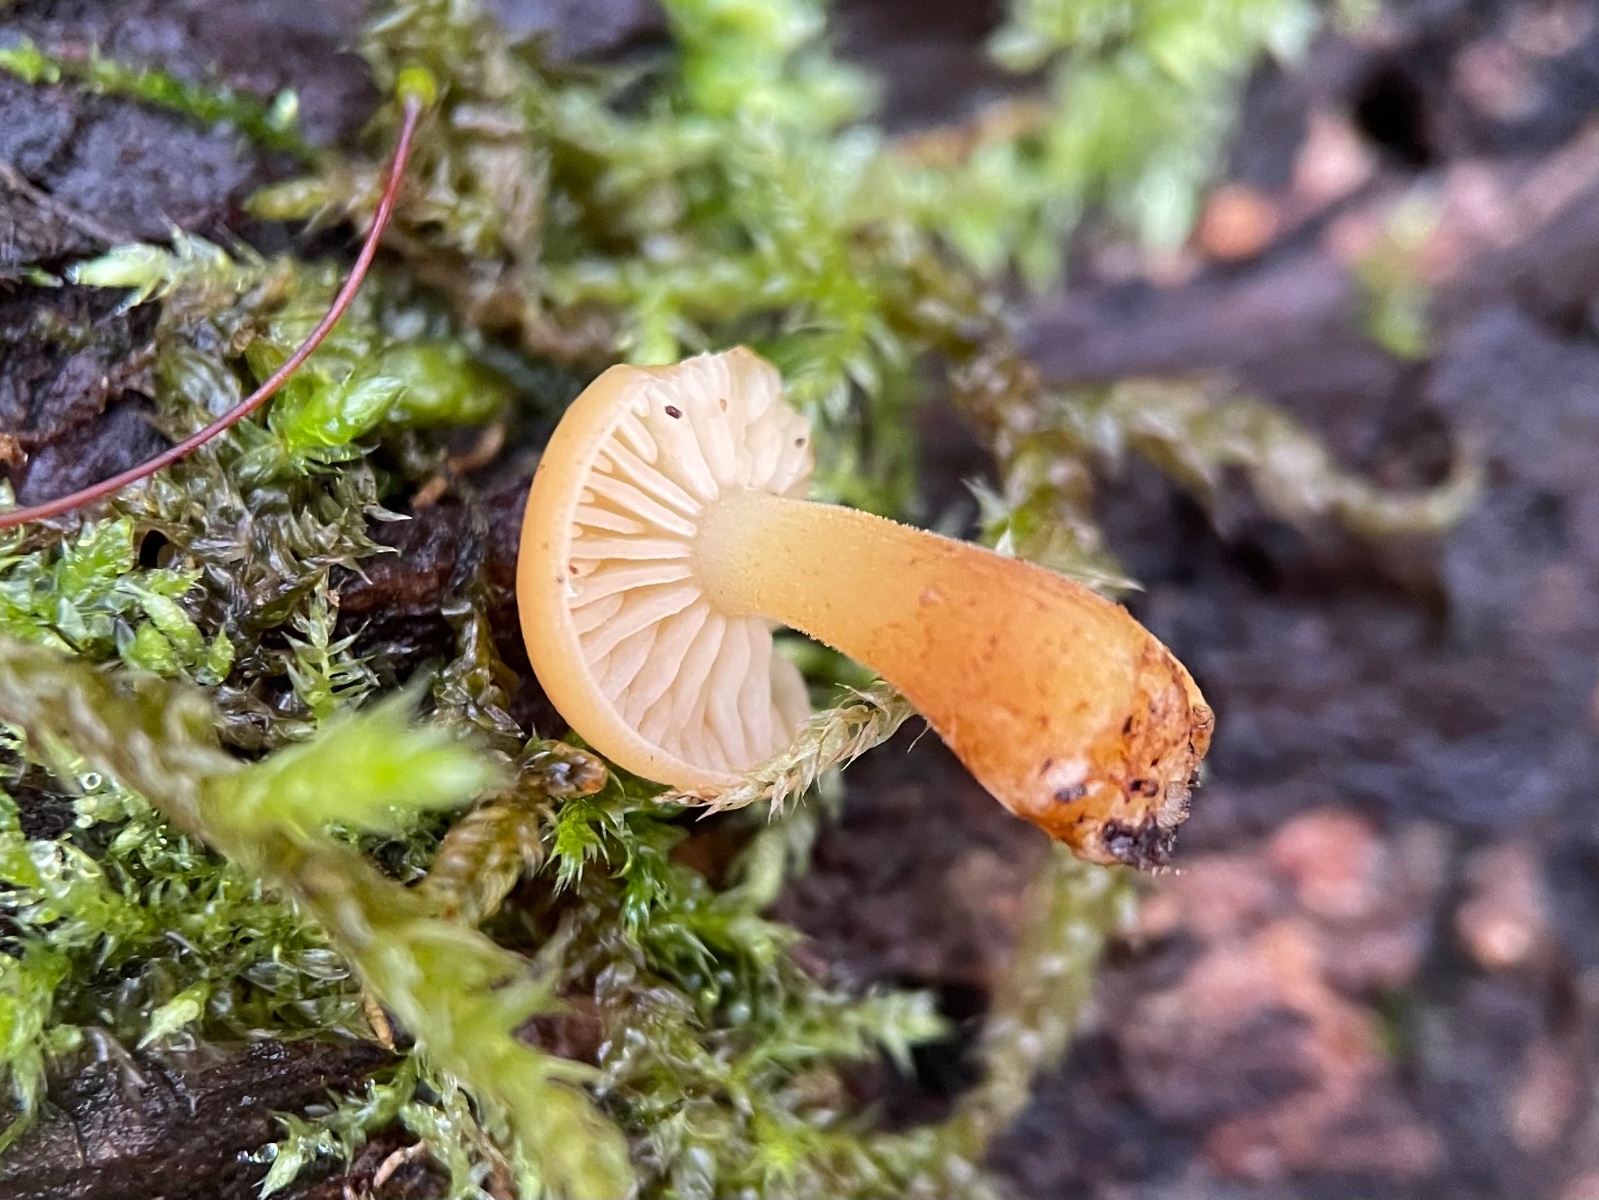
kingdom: Fungi
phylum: Basidiomycota
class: Agaricomycetes
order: Agaricales
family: Physalacriaceae
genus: Flammulina
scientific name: Flammulina
